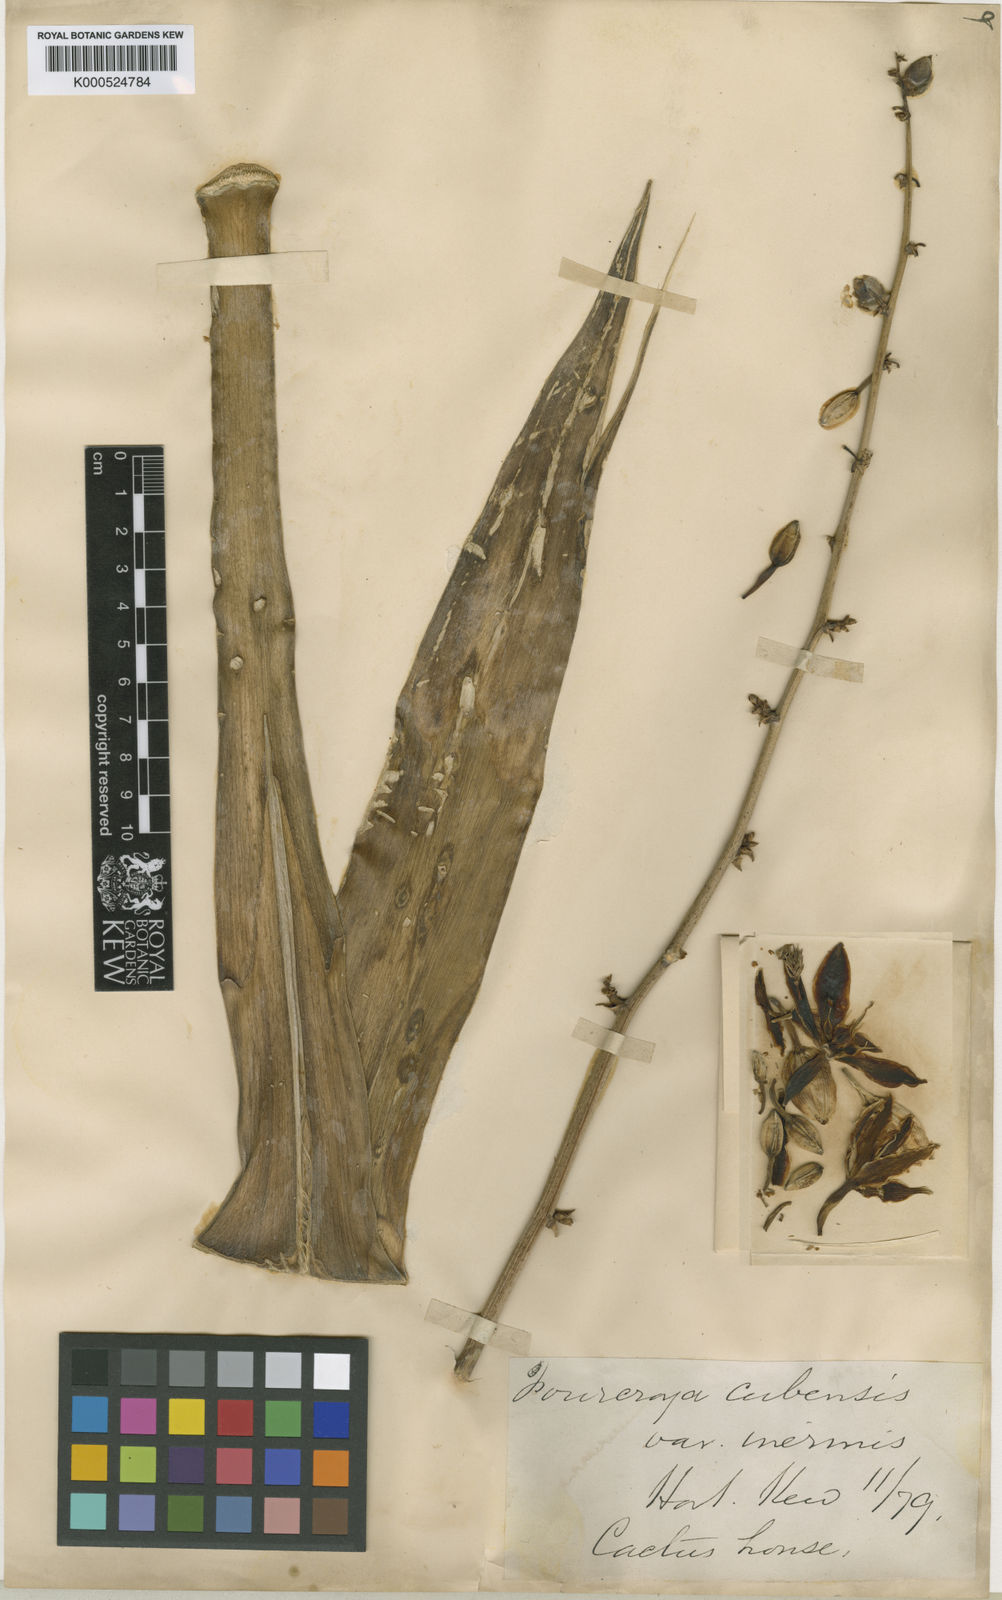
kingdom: Plantae
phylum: Tracheophyta
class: Liliopsida
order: Asparagales
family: Asparagaceae
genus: Furcraea
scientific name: Furcraea hexapetala
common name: Cuban-hemp
